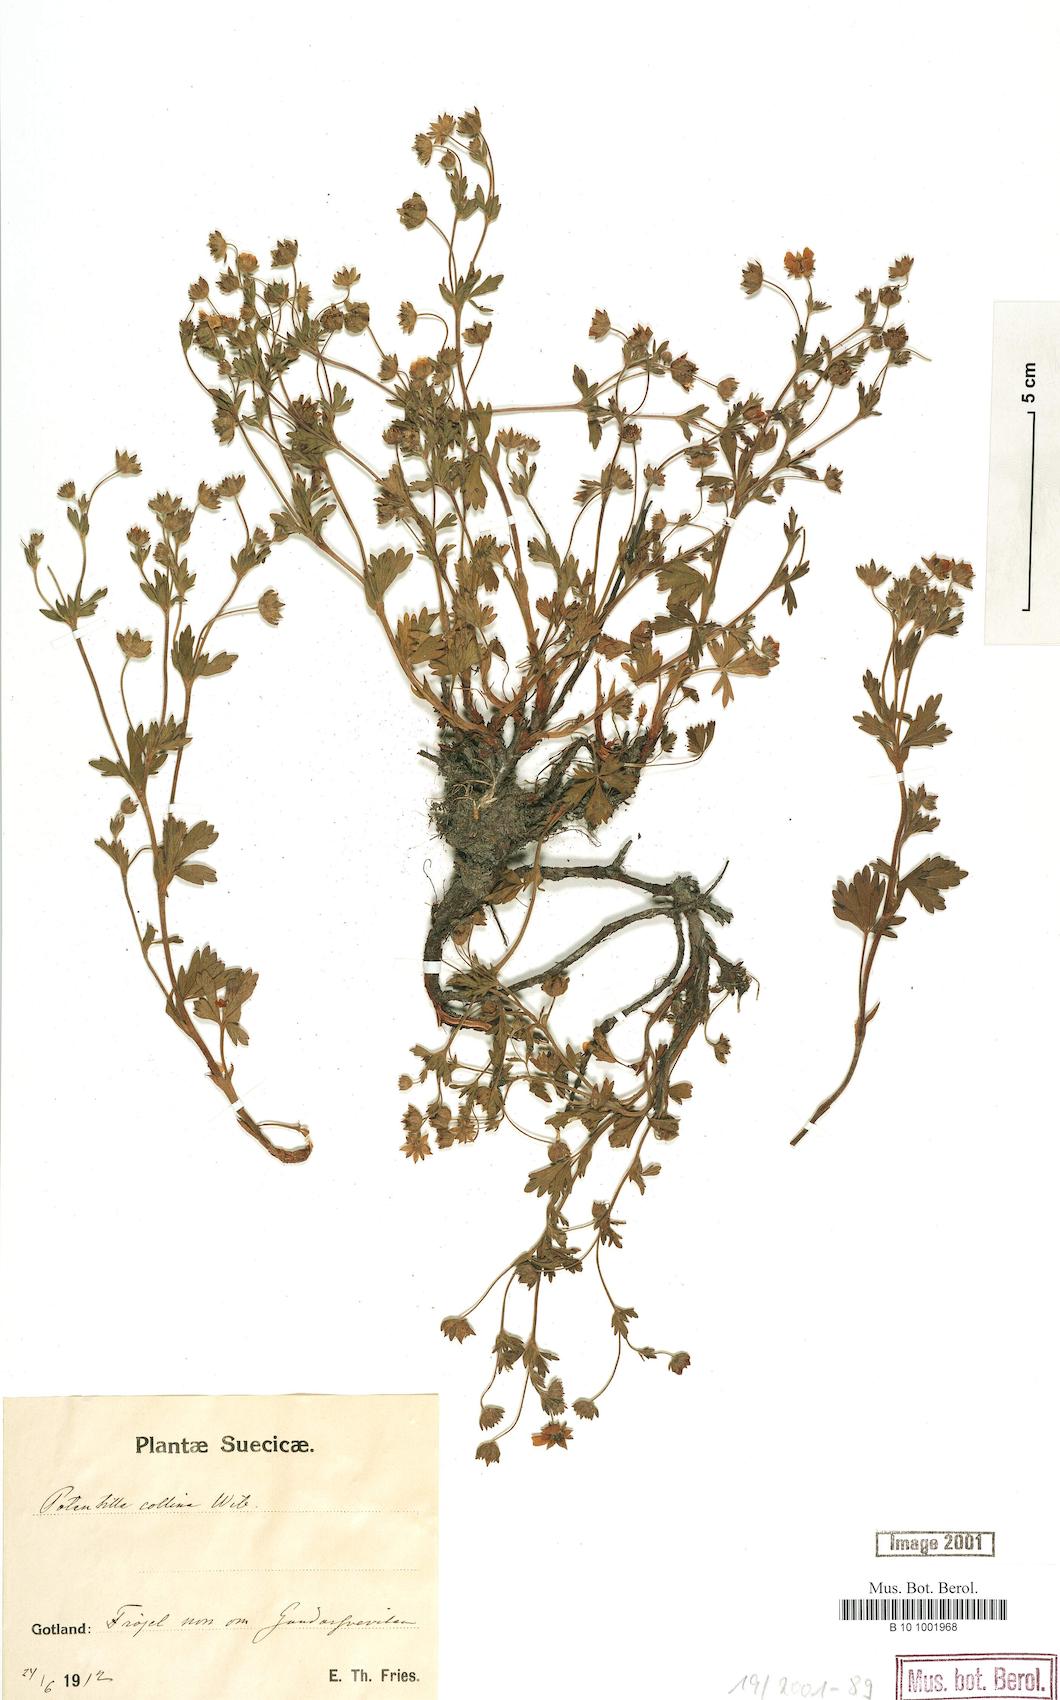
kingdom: Plantae
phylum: Tracheophyta
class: Magnoliopsida
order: Rosales
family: Rosaceae
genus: Potentilla
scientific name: Potentilla collina
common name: Palmleaf cinquefoil
